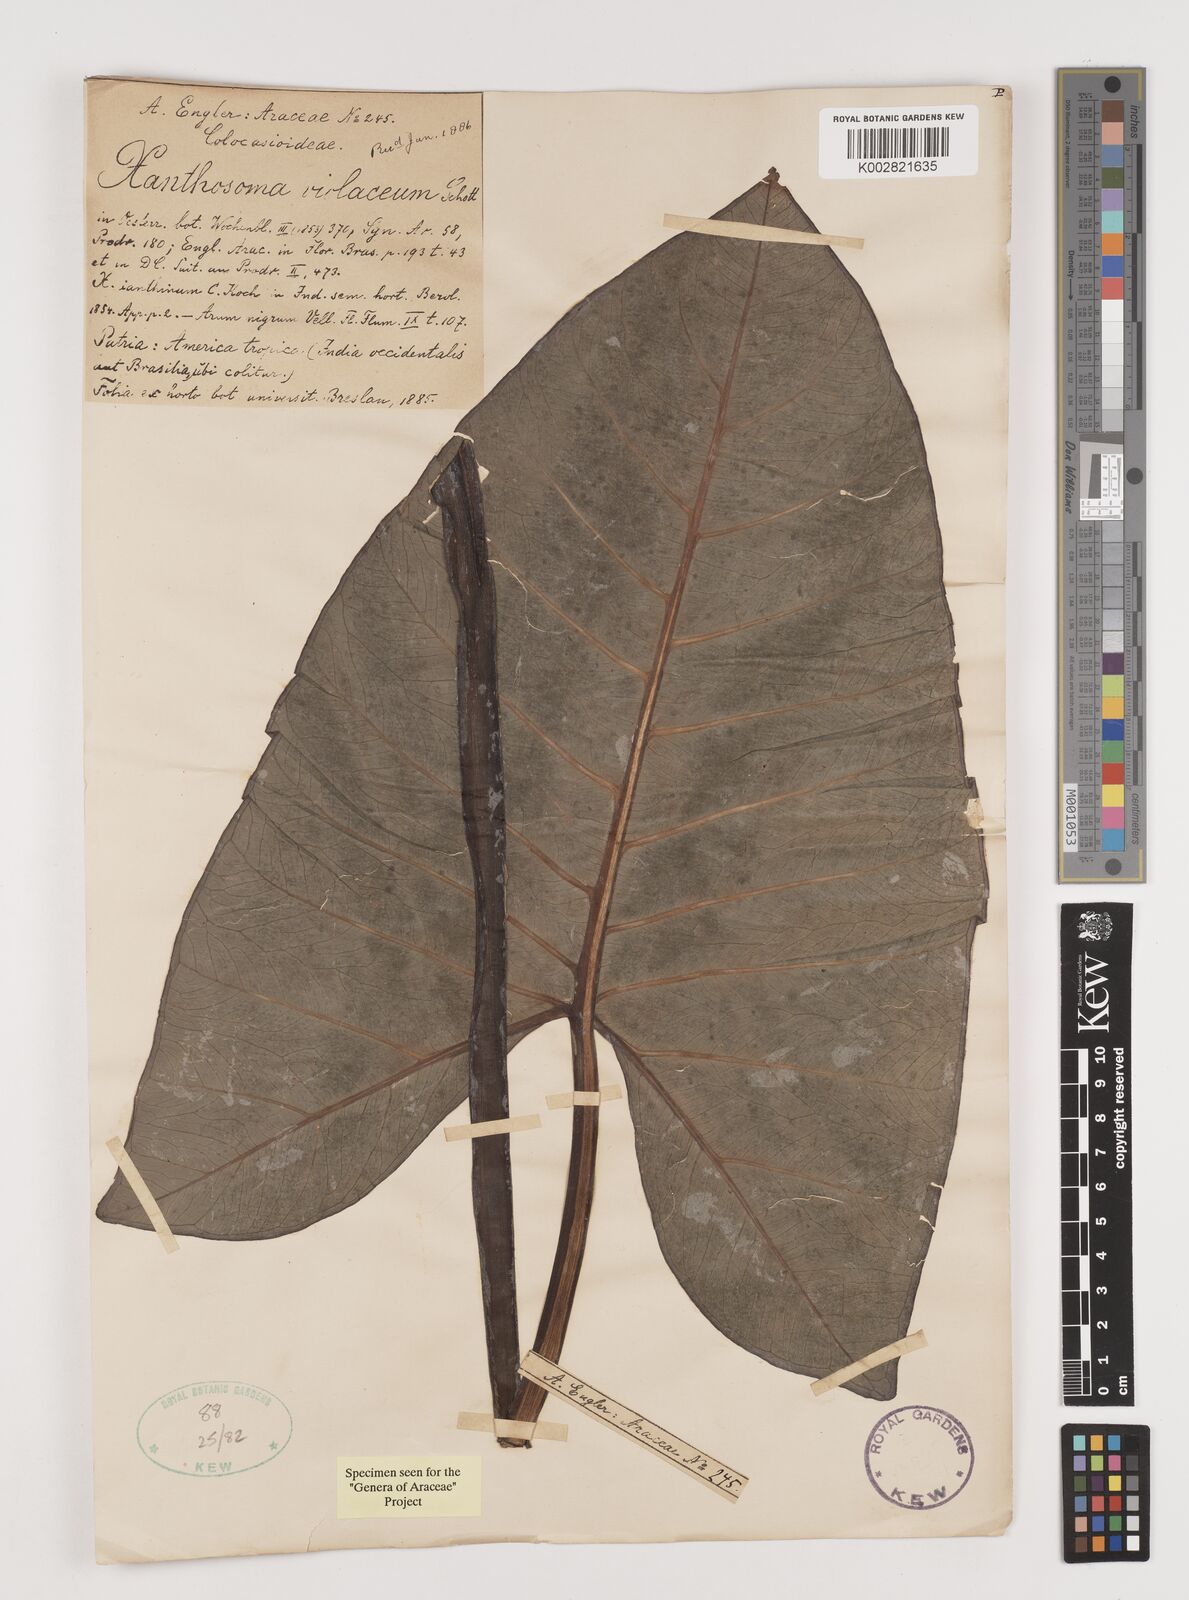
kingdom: Plantae
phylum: Tracheophyta
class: Liliopsida
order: Alismatales
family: Araceae
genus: Xanthosoma
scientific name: Xanthosoma sagittifolium
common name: Arrowleaf elephant's ear
